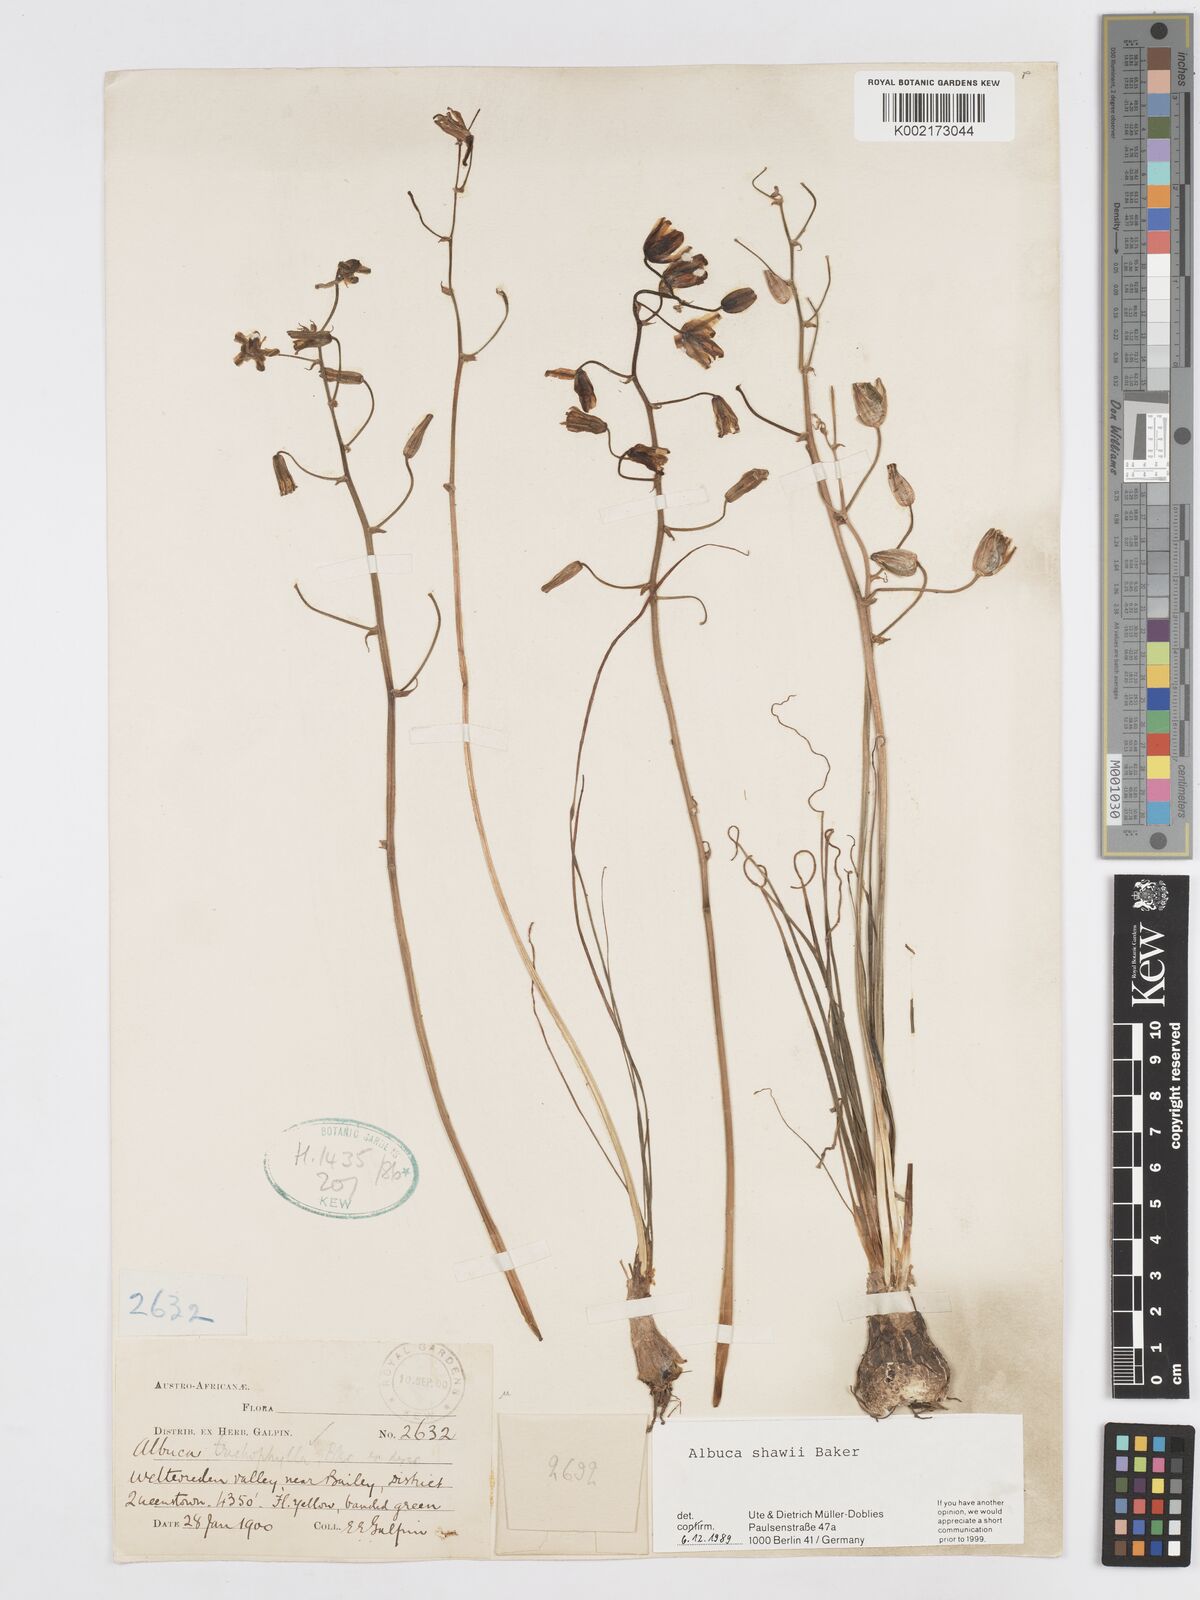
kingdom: Plantae
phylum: Tracheophyta
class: Liliopsida
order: Asparagales
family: Asparagaceae
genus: Albuca
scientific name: Albuca shawii
